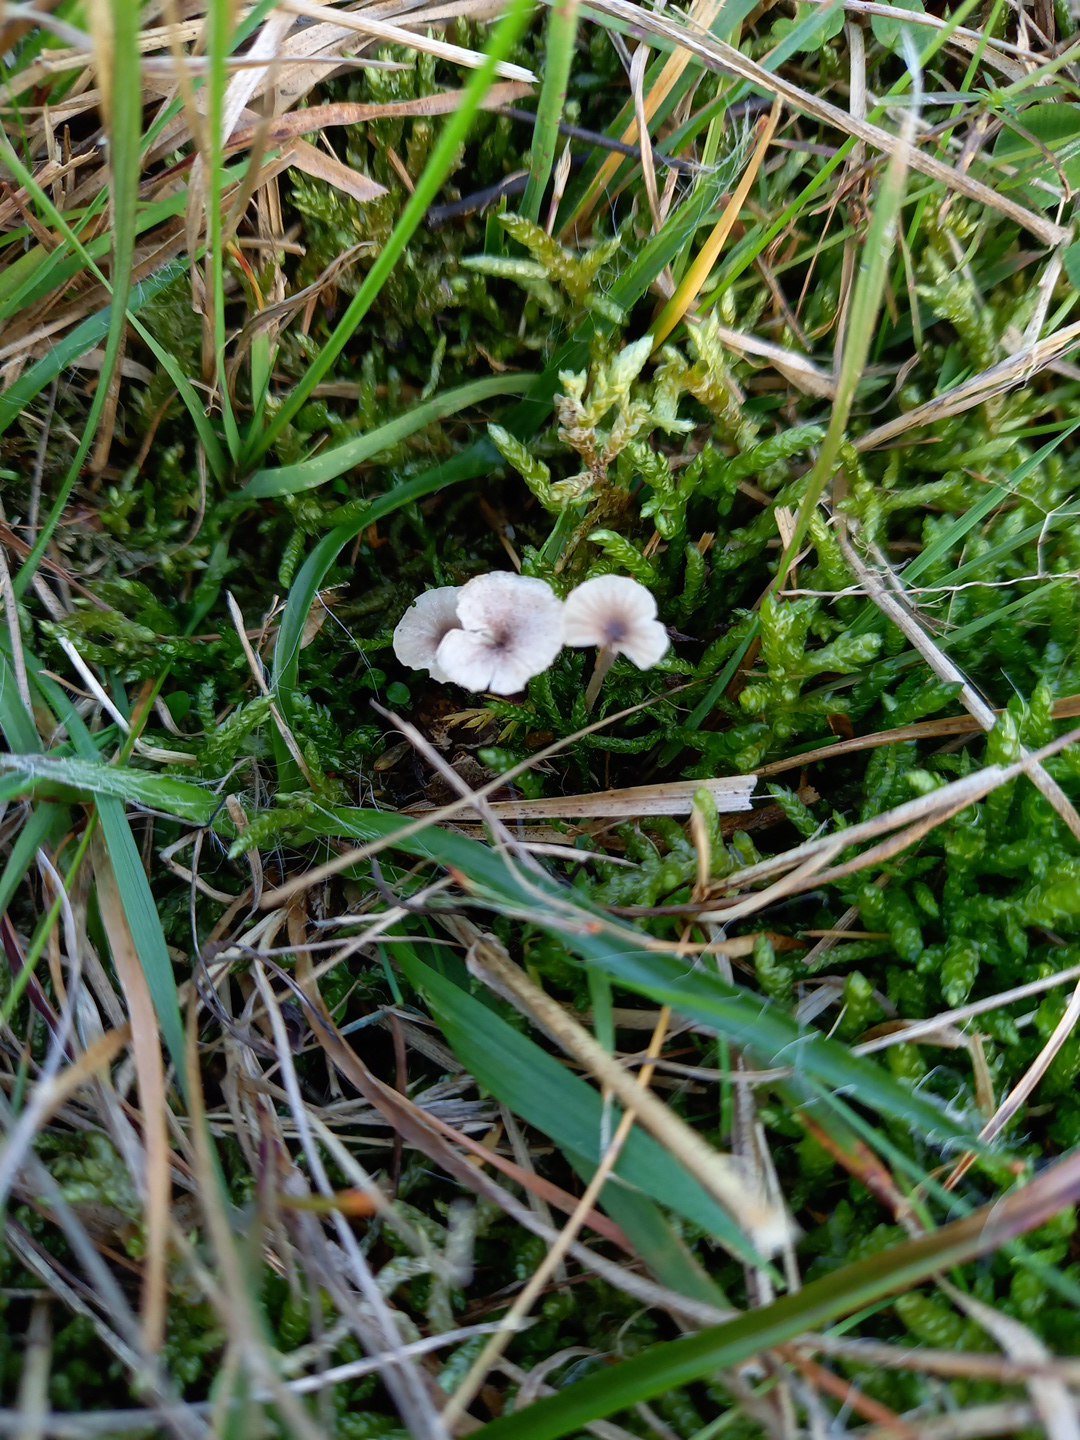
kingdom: Fungi
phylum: Basidiomycota
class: Agaricomycetes
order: Hymenochaetales
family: Rickenellaceae
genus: Rickenella
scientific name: Rickenella swartzii
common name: finstokket mosnavlehat
